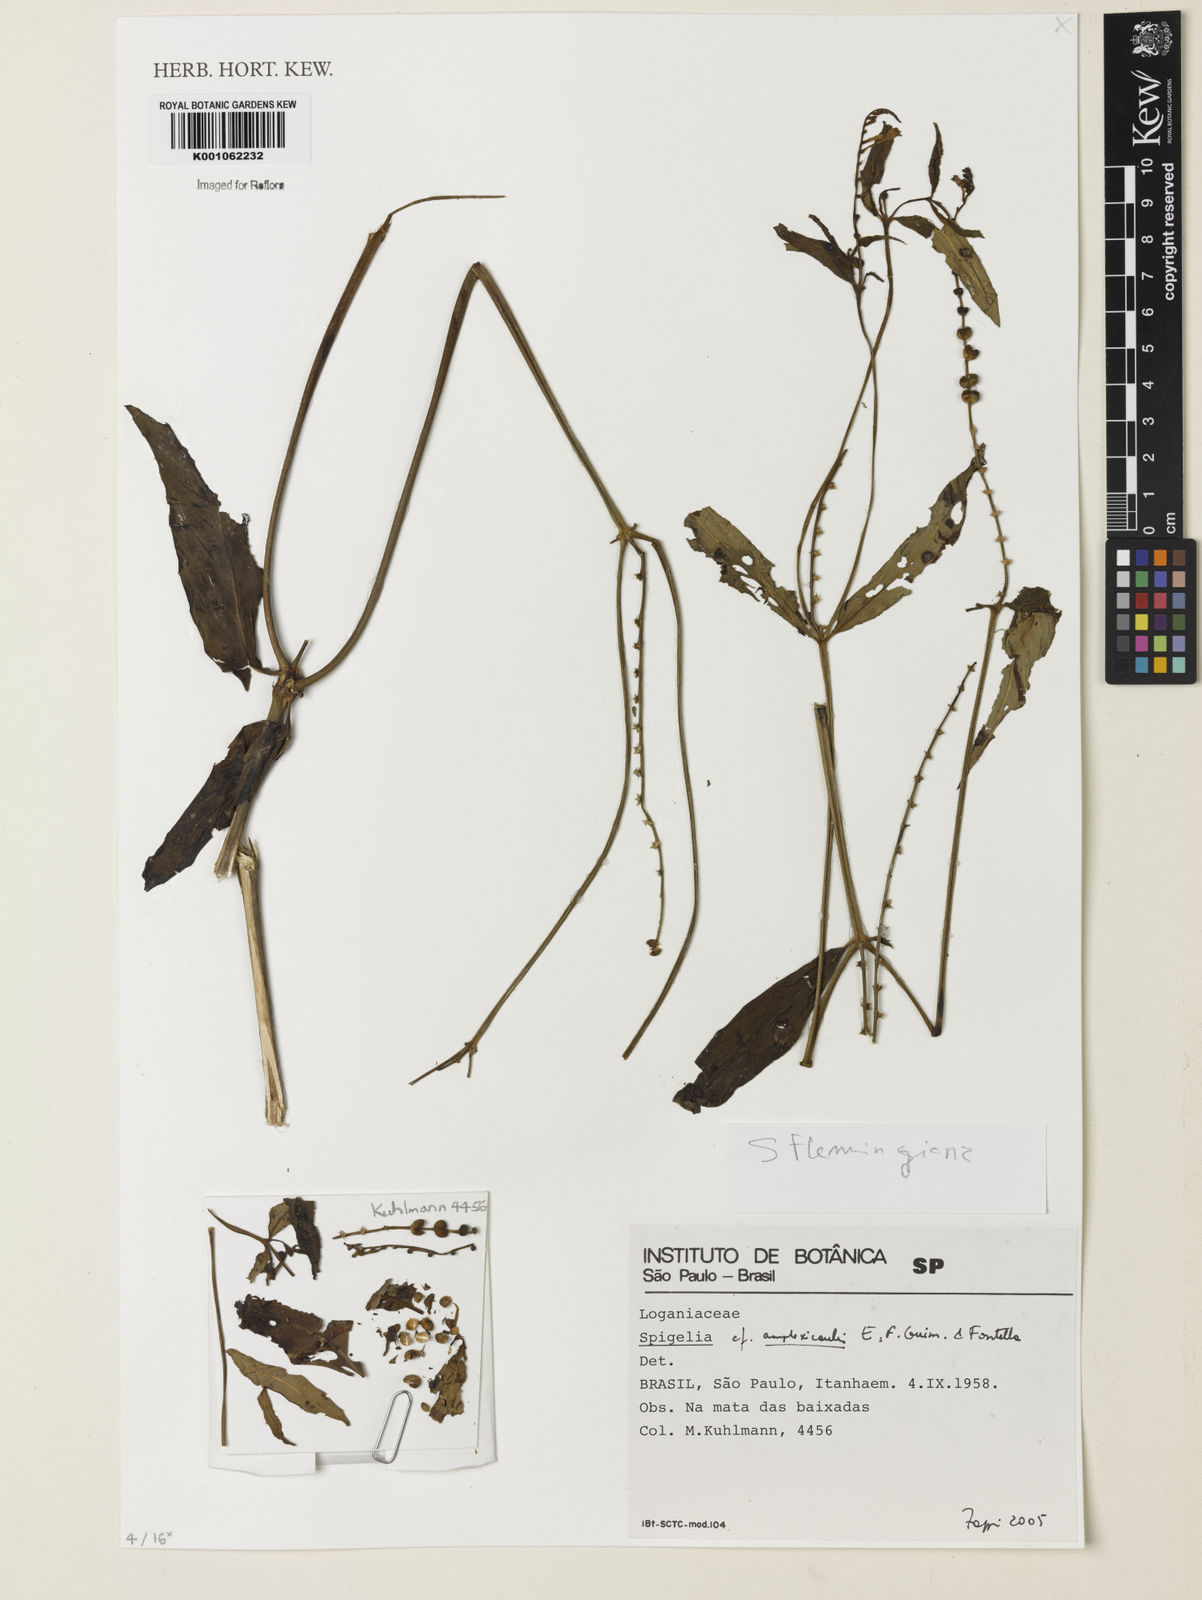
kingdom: Plantae
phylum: Tracheophyta
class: Magnoliopsida
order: Gentianales
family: Loganiaceae
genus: Spigelia
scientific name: Spigelia
